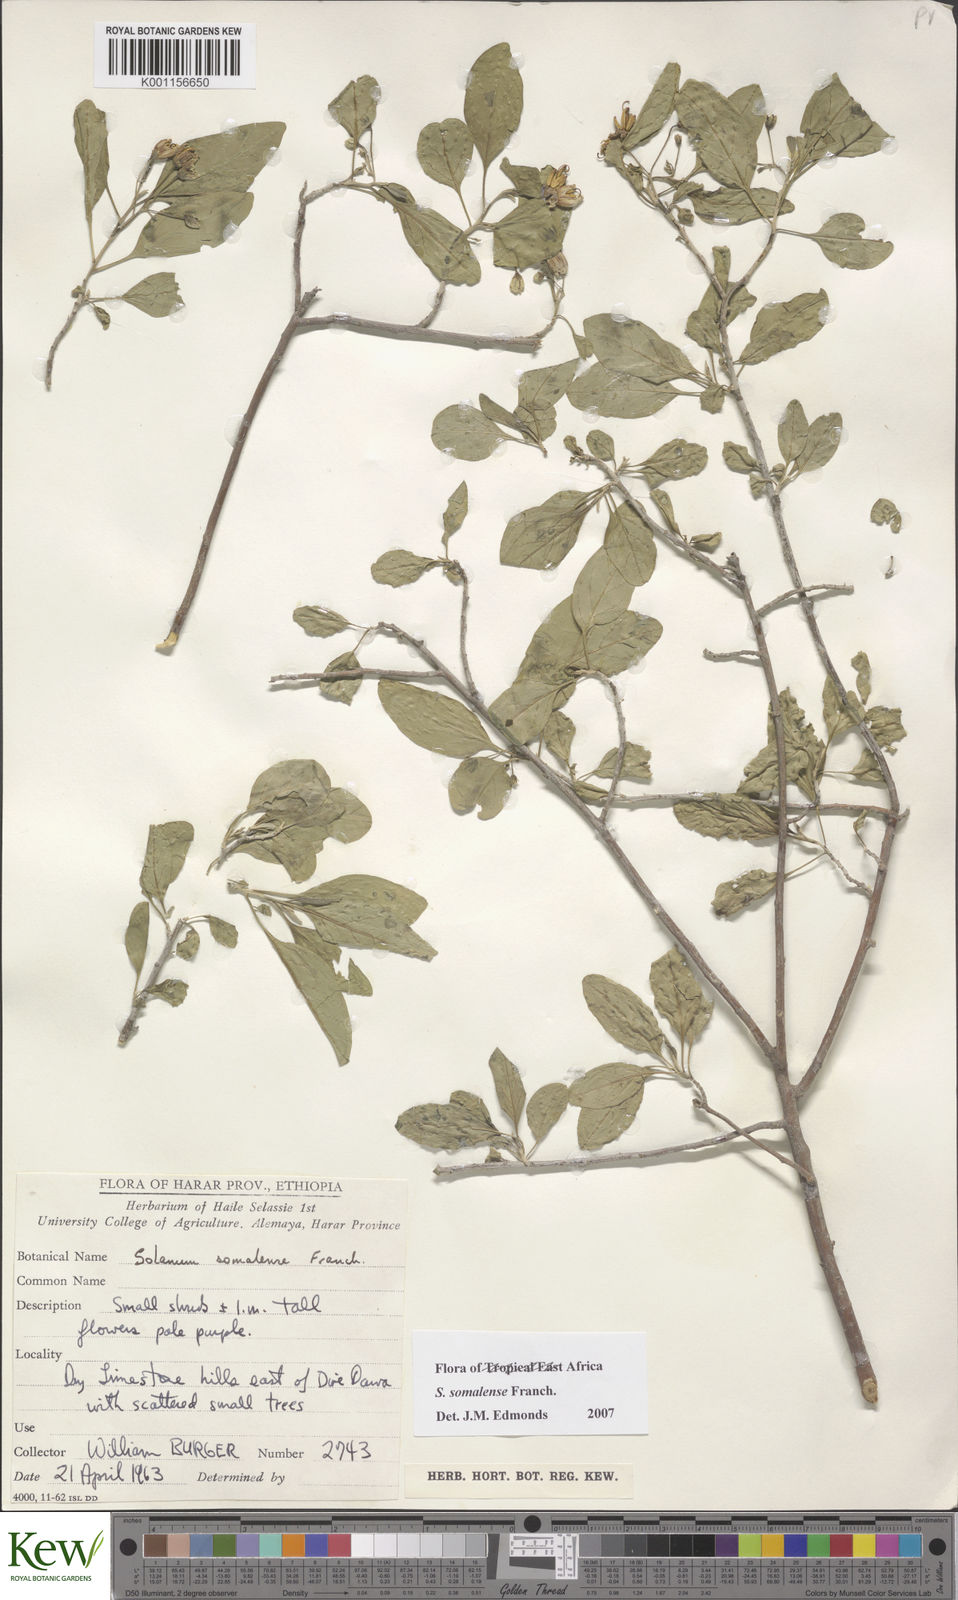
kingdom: Plantae
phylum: Tracheophyta
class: Magnoliopsida
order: Solanales
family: Solanaceae
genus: Solanum
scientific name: Solanum somalense
